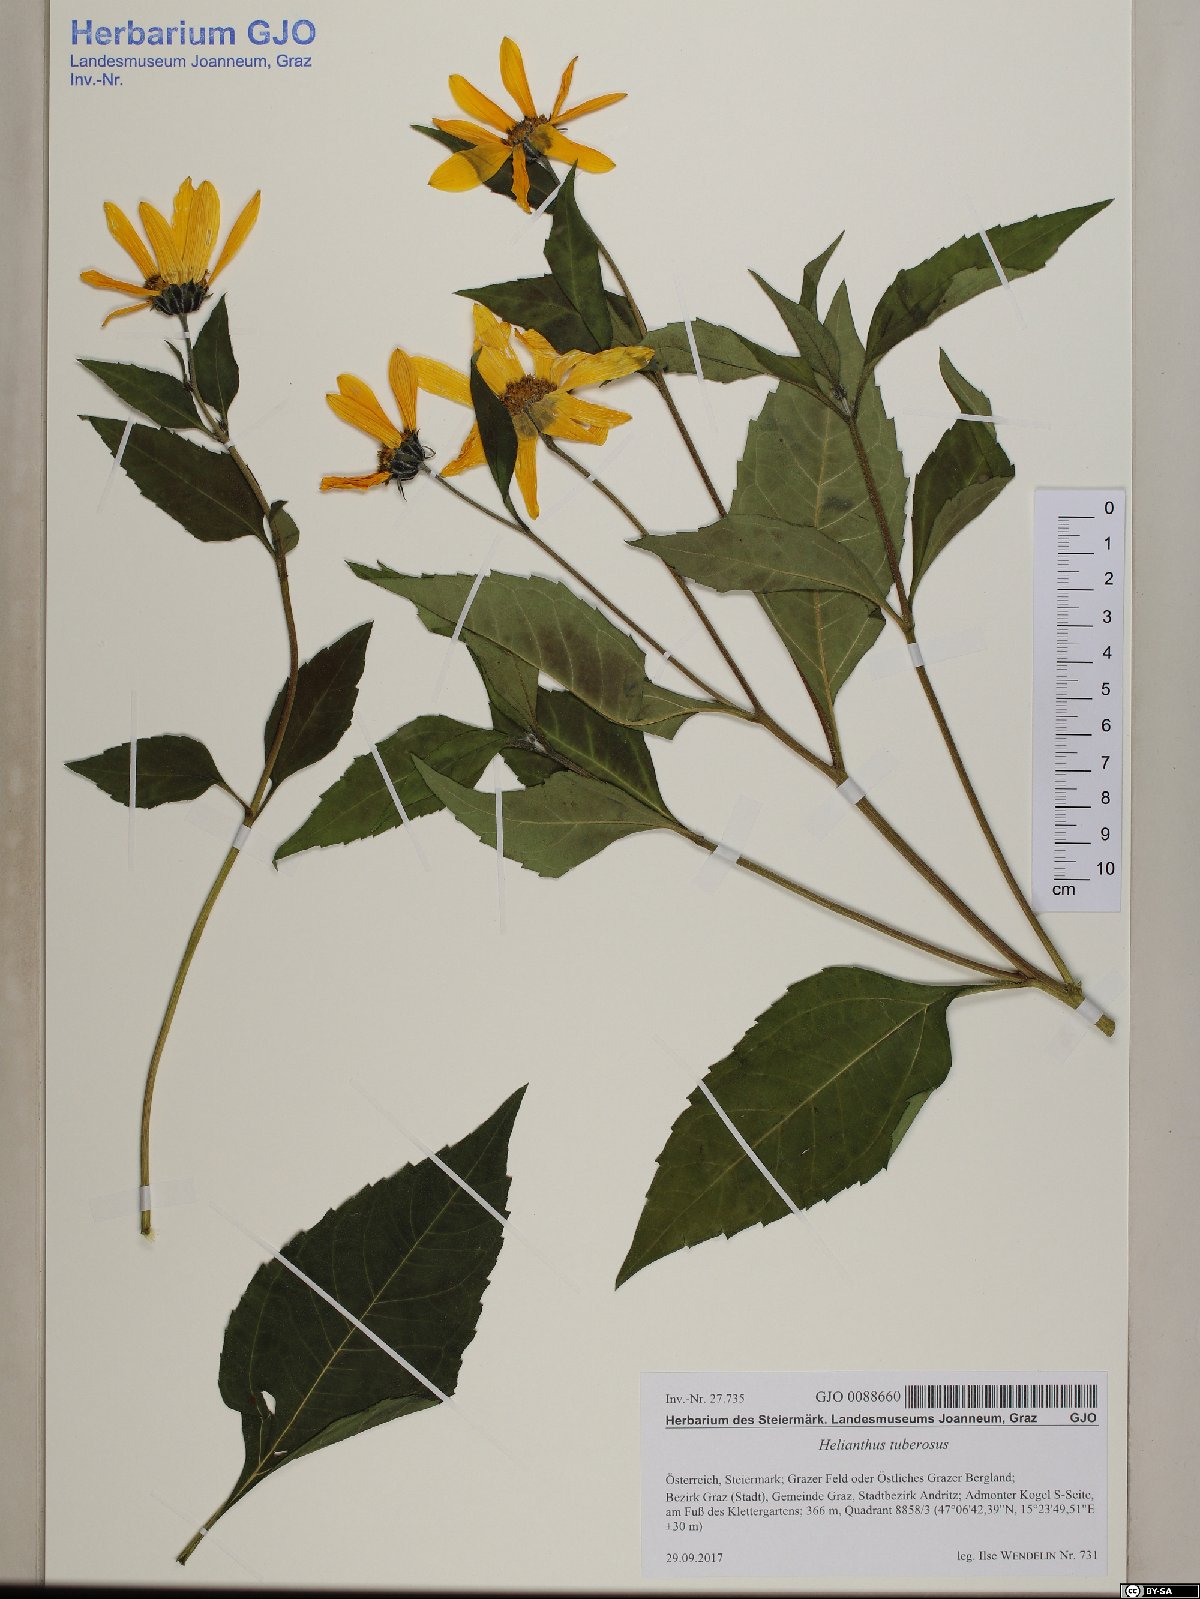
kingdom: Plantae
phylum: Tracheophyta
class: Magnoliopsida
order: Asterales
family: Asteraceae
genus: Helianthus
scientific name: Helianthus tuberosus
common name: Jerusalem artichoke
